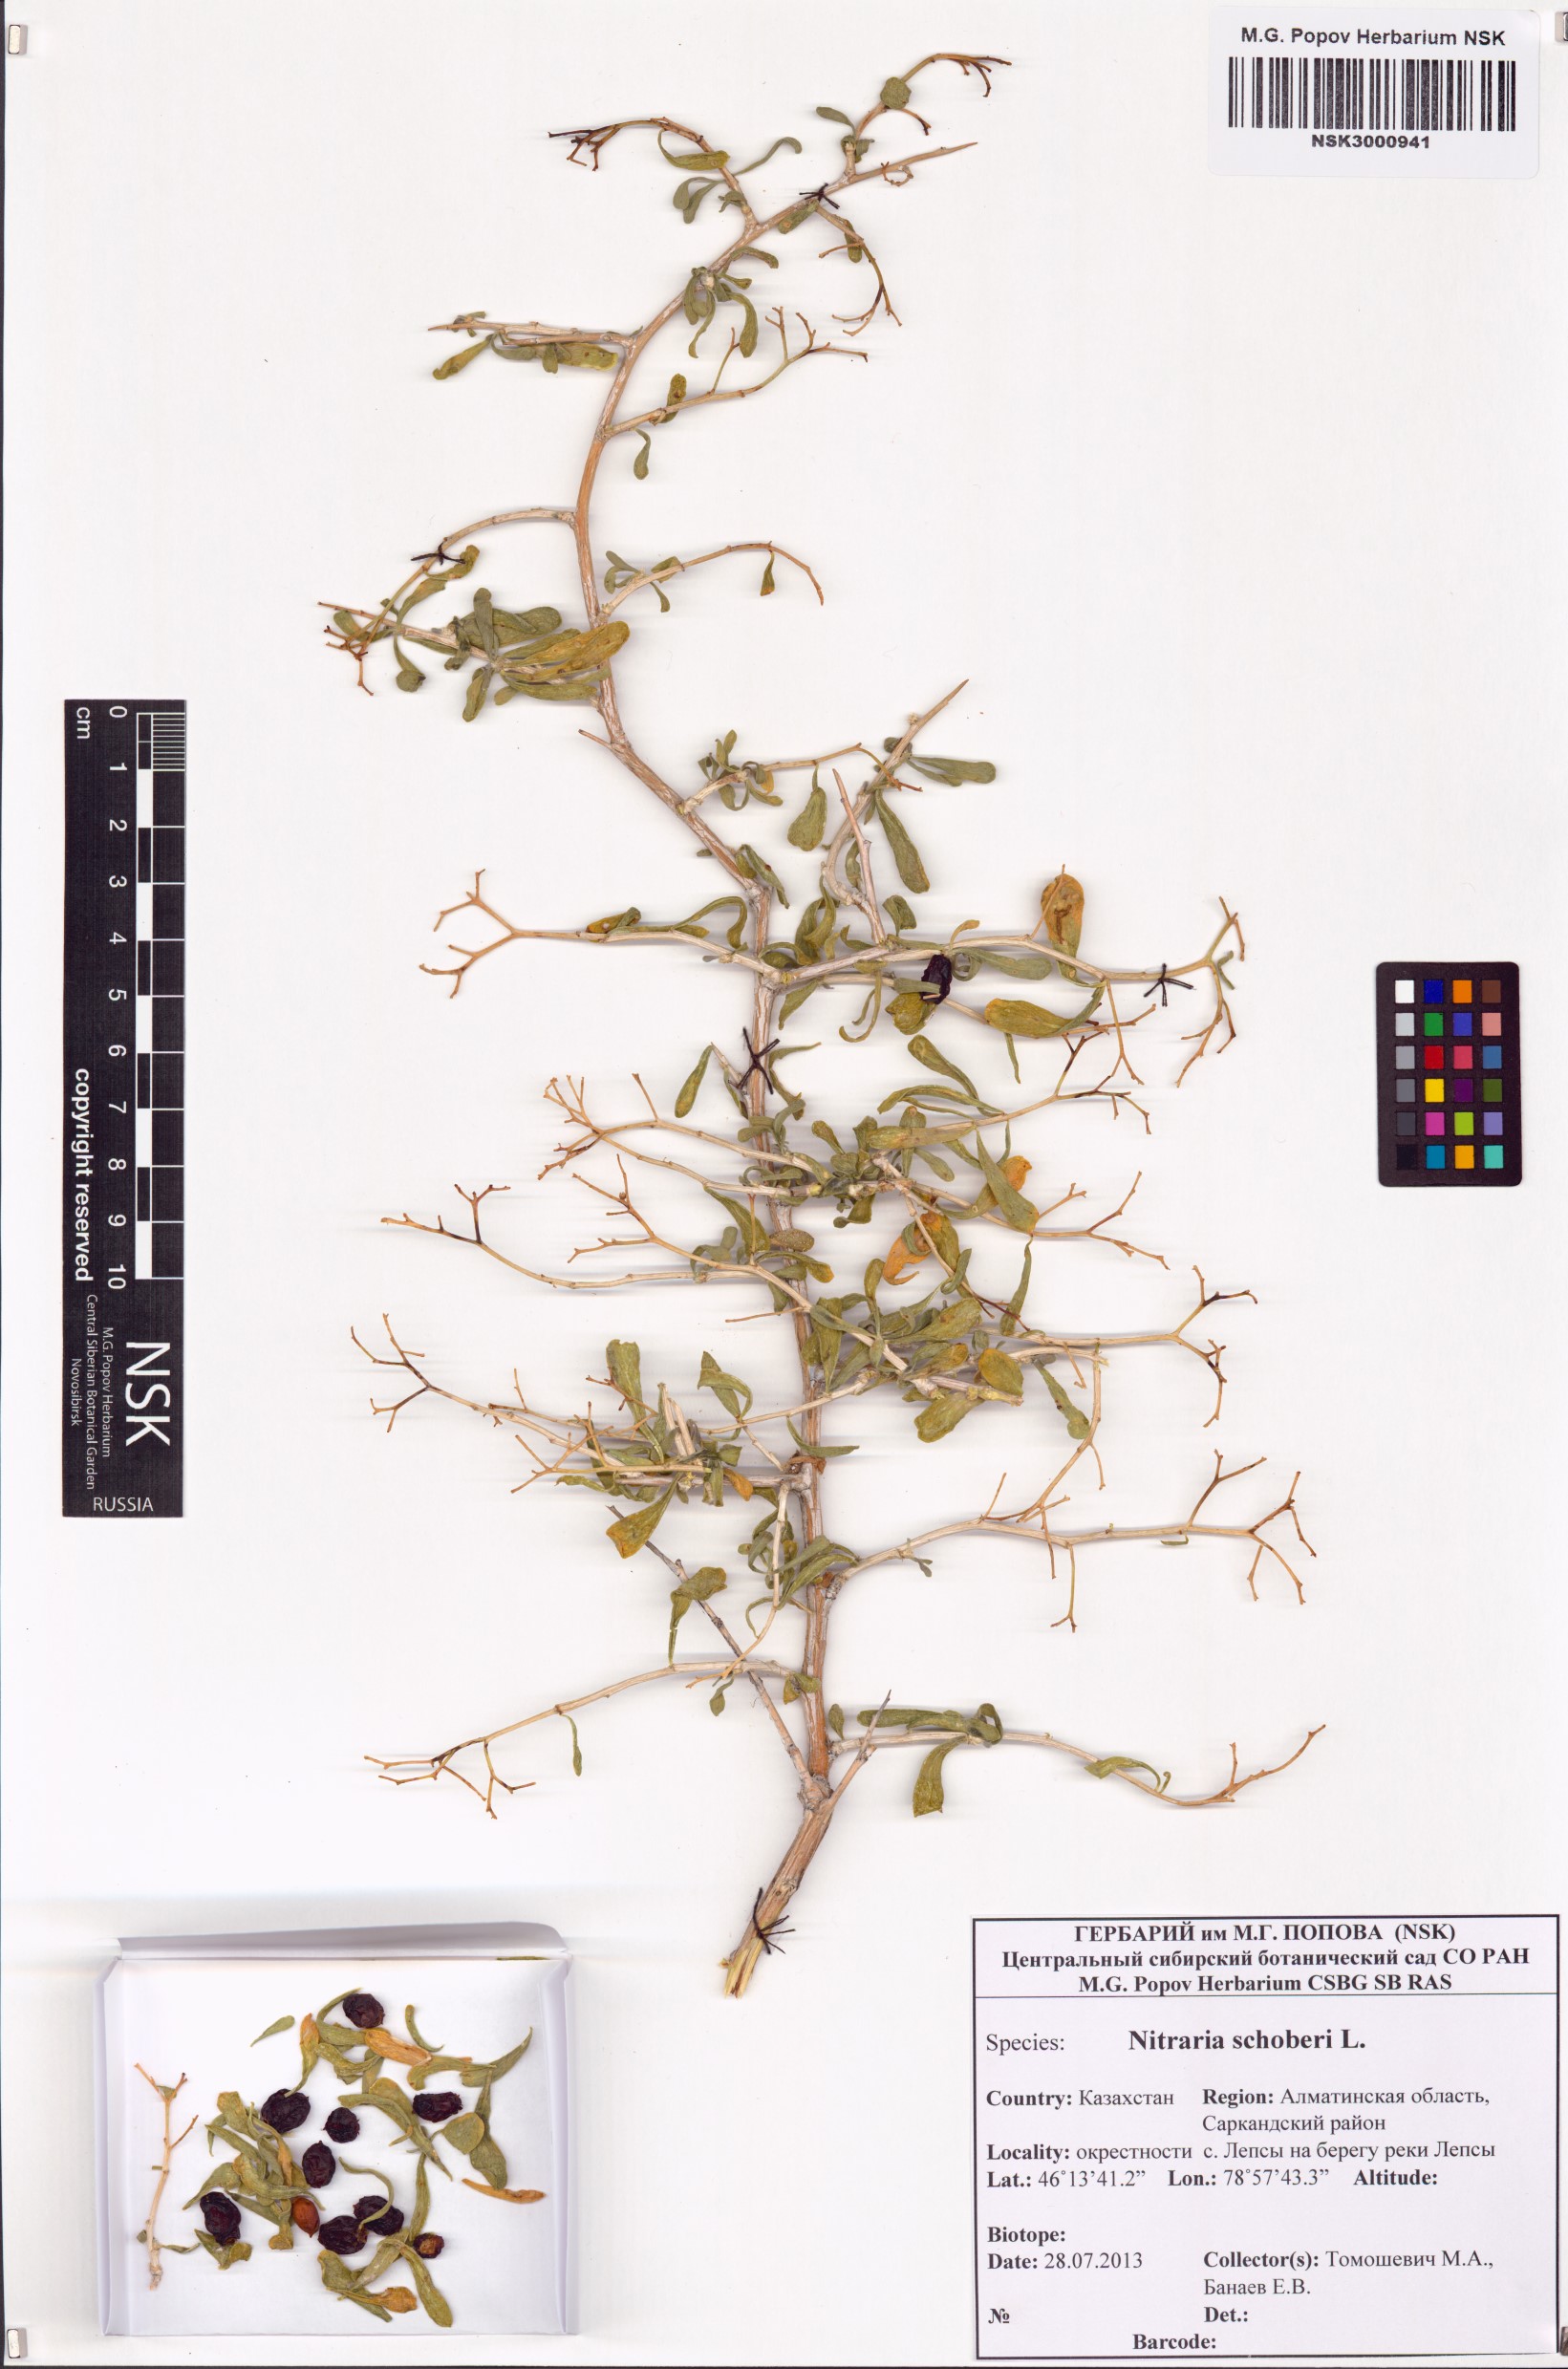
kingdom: Plantae
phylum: Tracheophyta
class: Magnoliopsida
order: Sapindales
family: Nitrariaceae
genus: Nitraria
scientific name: Nitraria schoberi
